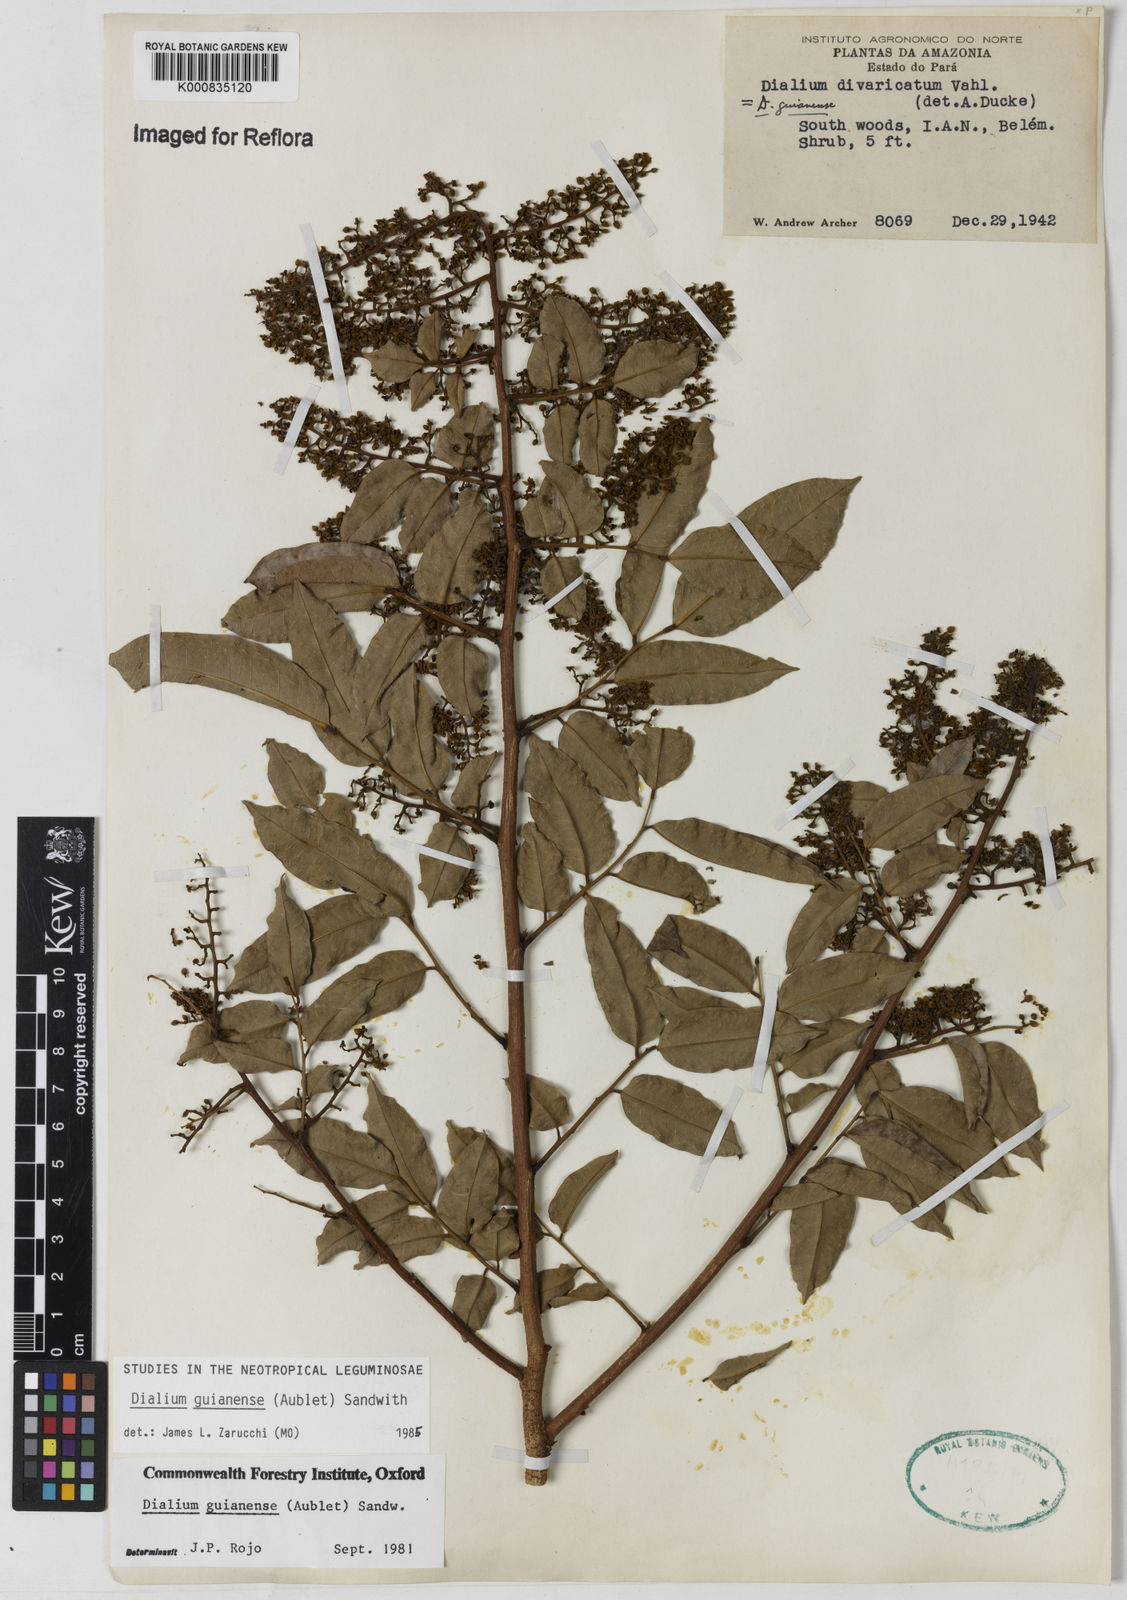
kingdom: Plantae
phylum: Tracheophyta
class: Magnoliopsida
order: Fabales
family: Fabaceae
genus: Dialium
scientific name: Dialium guianense
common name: Ironwood
